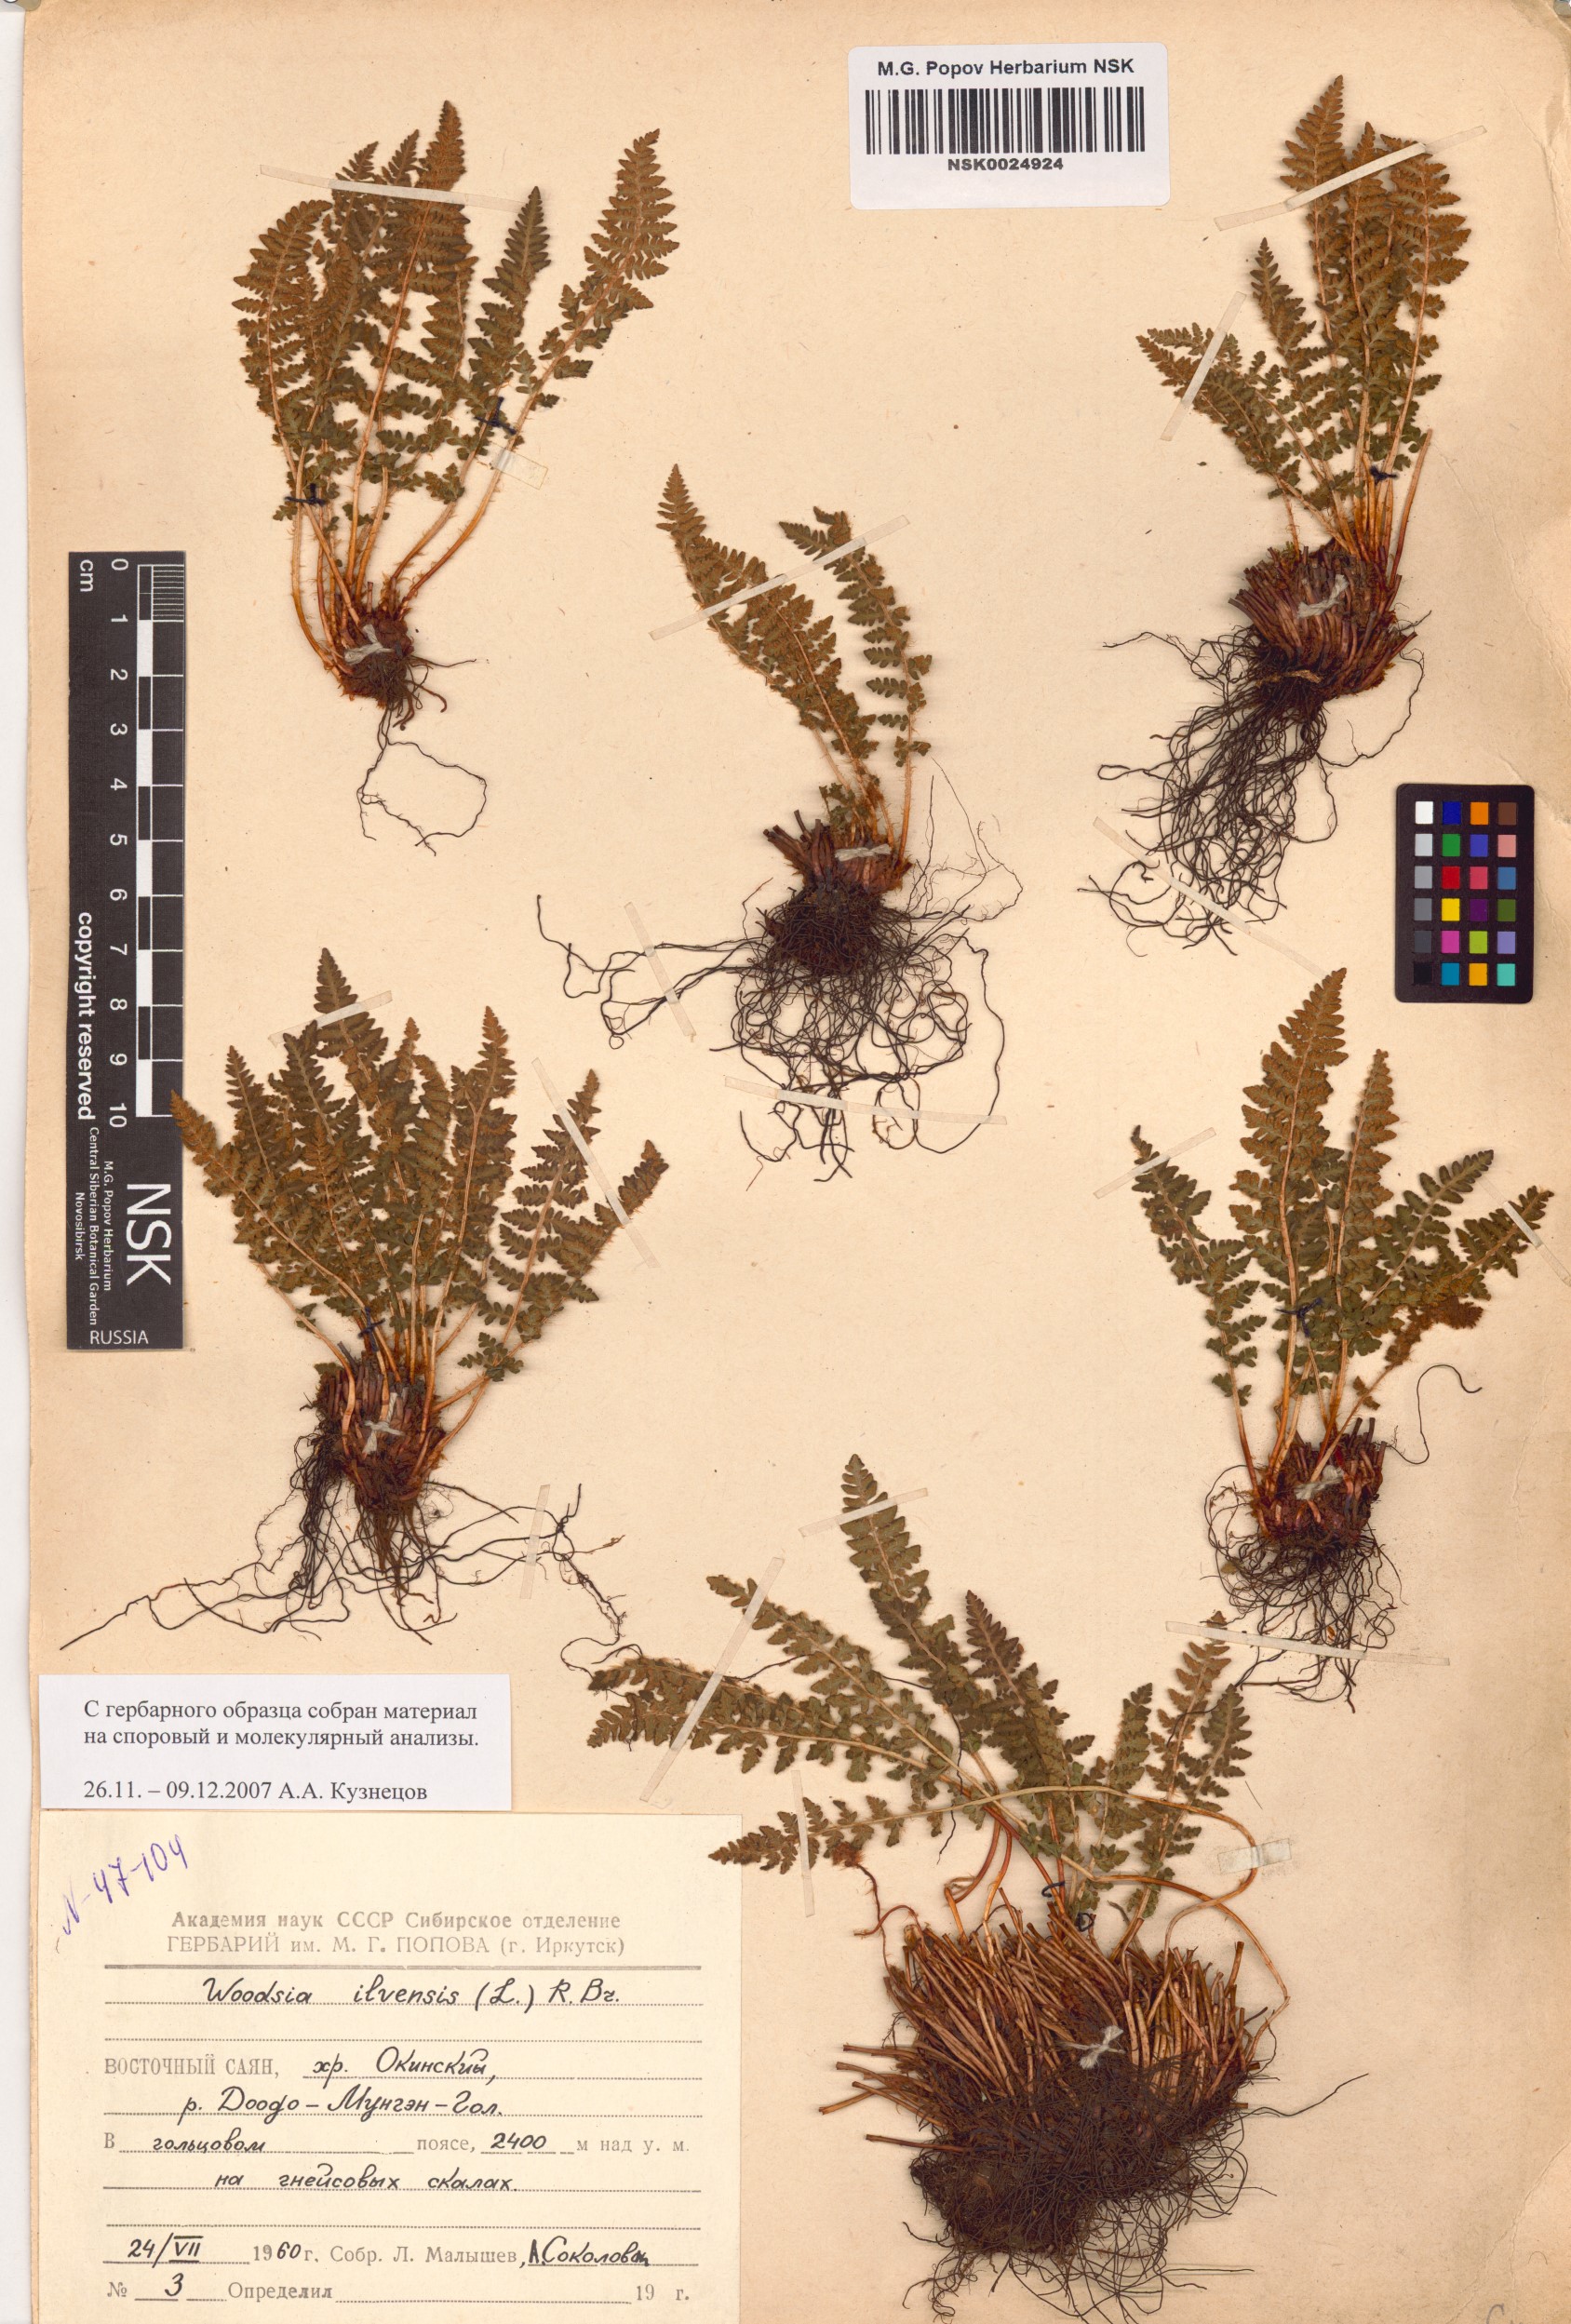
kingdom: Plantae
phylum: Tracheophyta
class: Polypodiopsida
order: Polypodiales
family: Woodsiaceae
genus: Woodsia
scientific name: Woodsia ilvensis
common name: Fragrant woodsia
